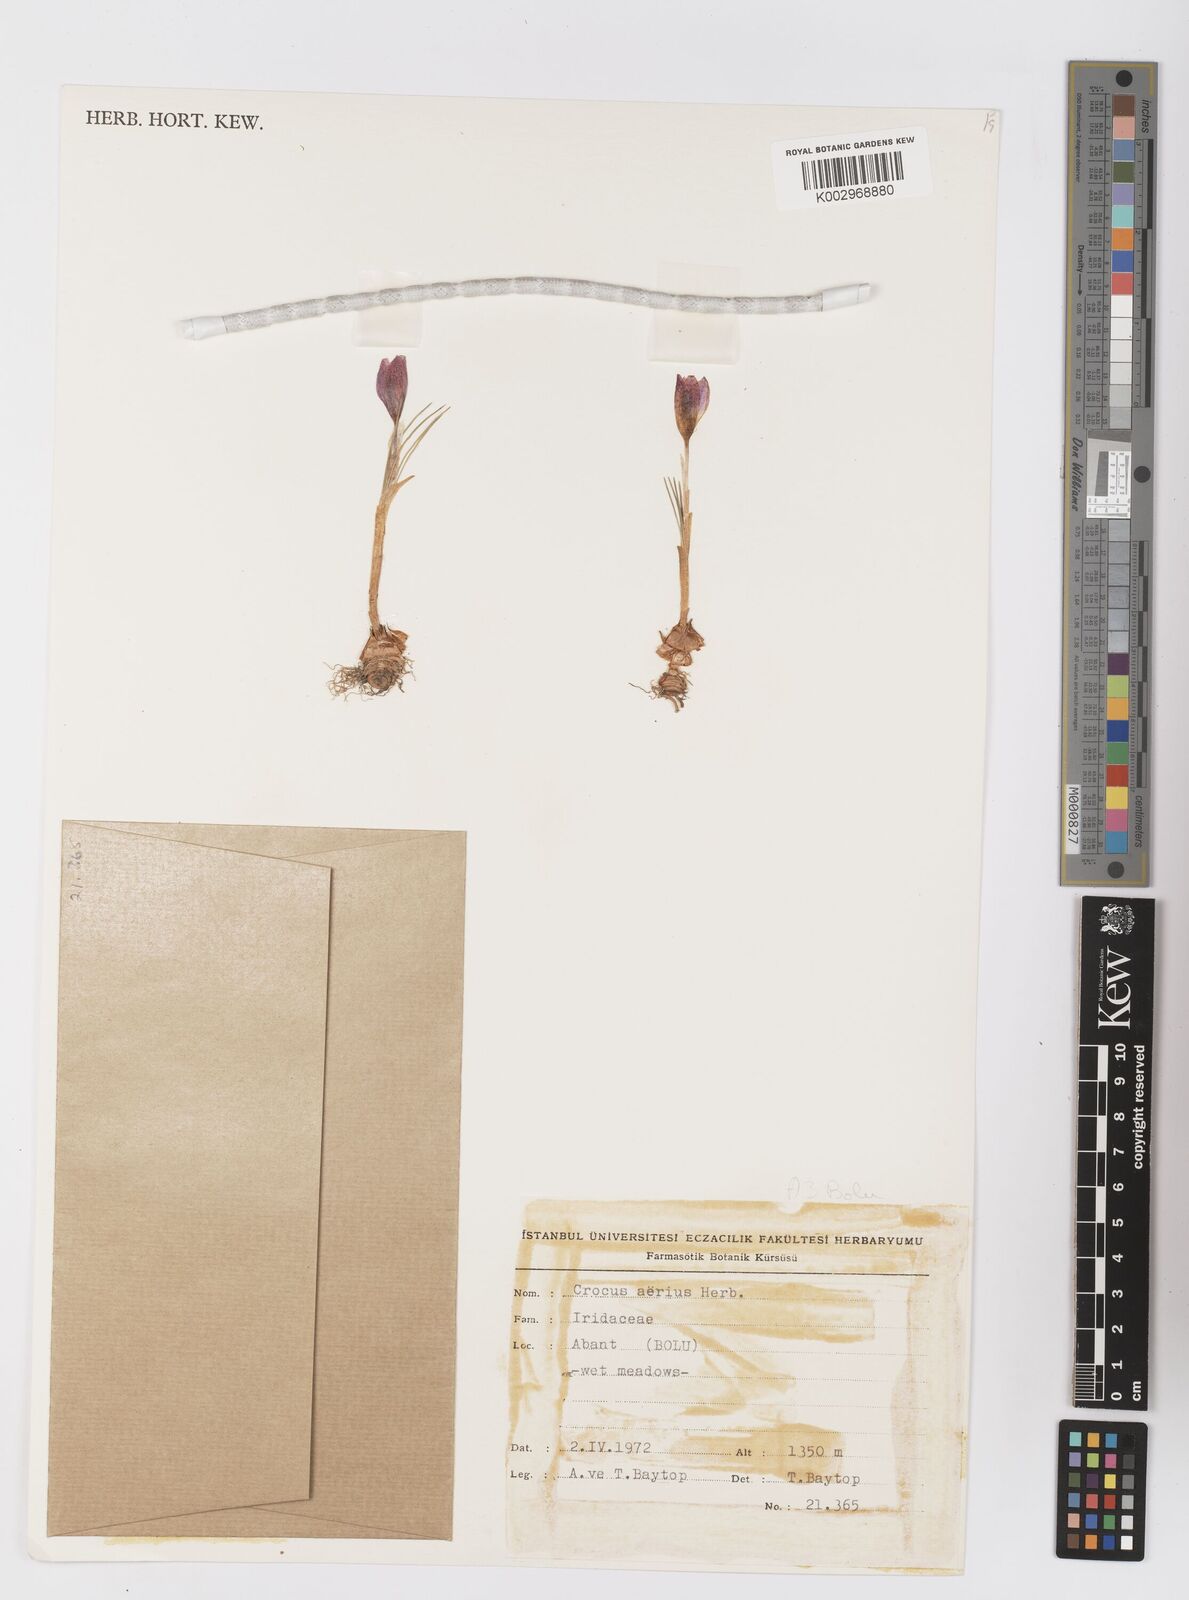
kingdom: Plantae
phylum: Tracheophyta
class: Liliopsida
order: Asparagales
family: Iridaceae
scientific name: Iridaceae
